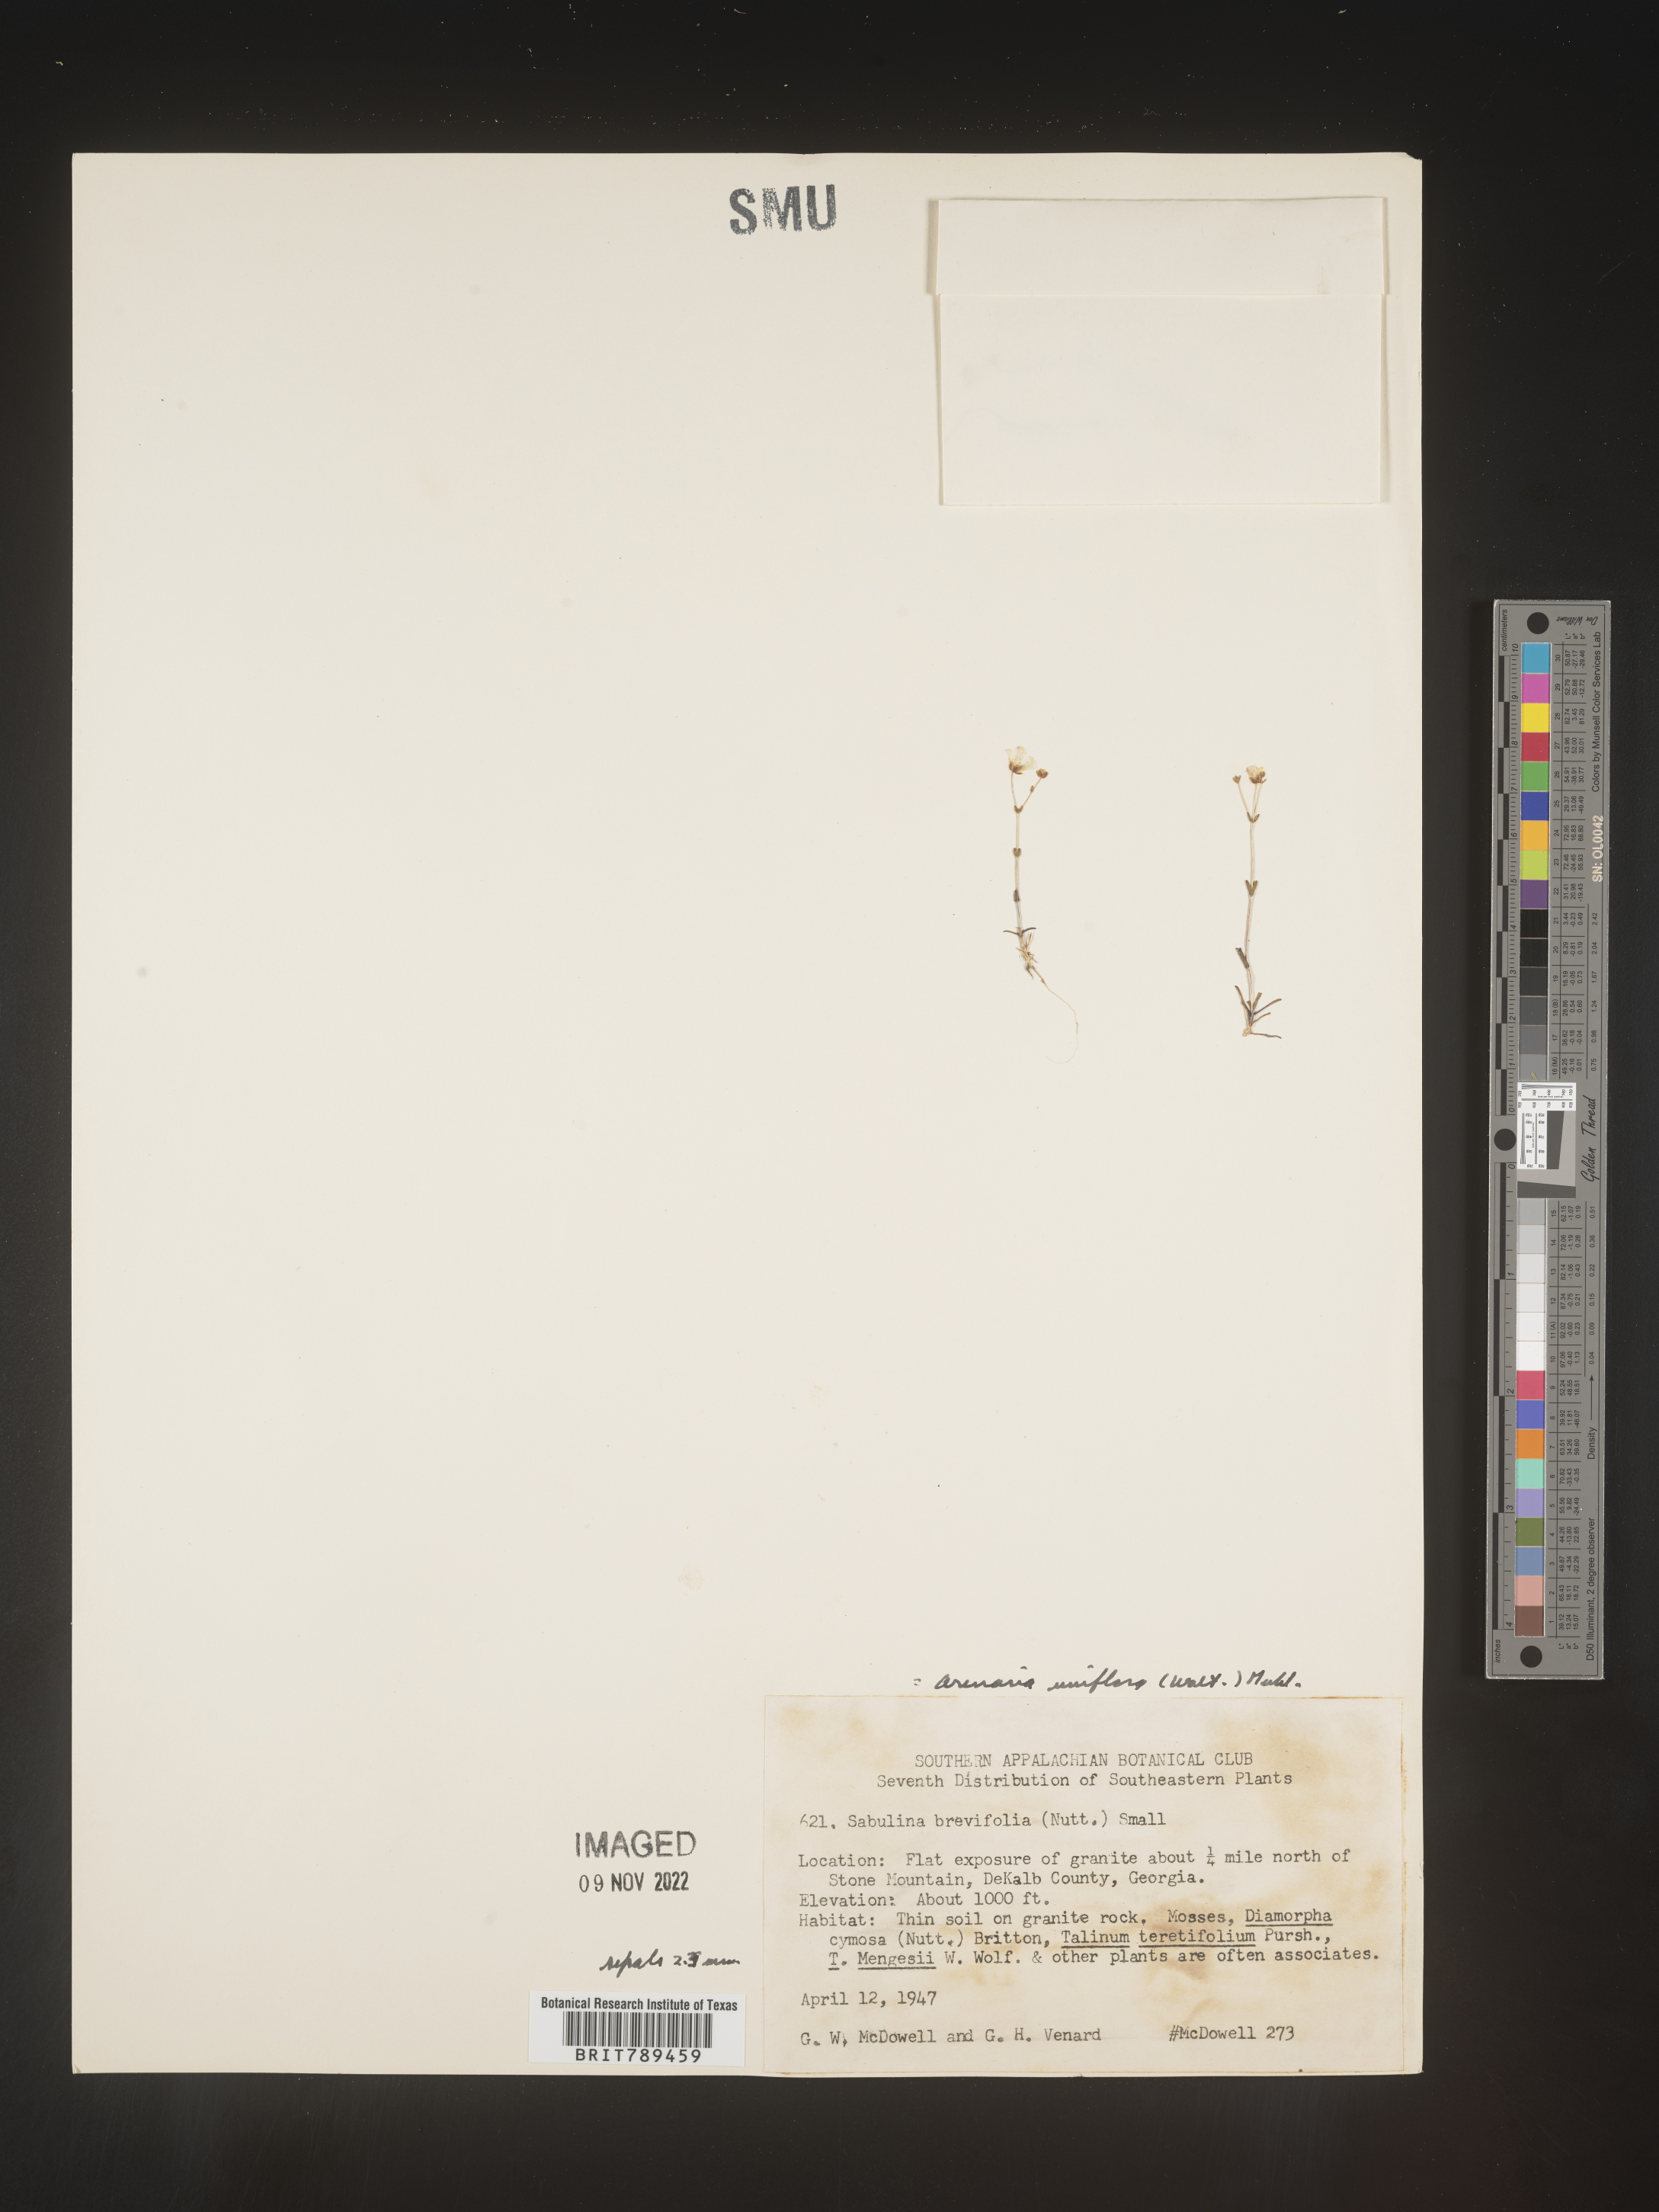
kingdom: Plantae
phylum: Tracheophyta
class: Magnoliopsida
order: Caryophyllales
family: Caryophyllaceae
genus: Arenaria
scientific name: Arenaria
